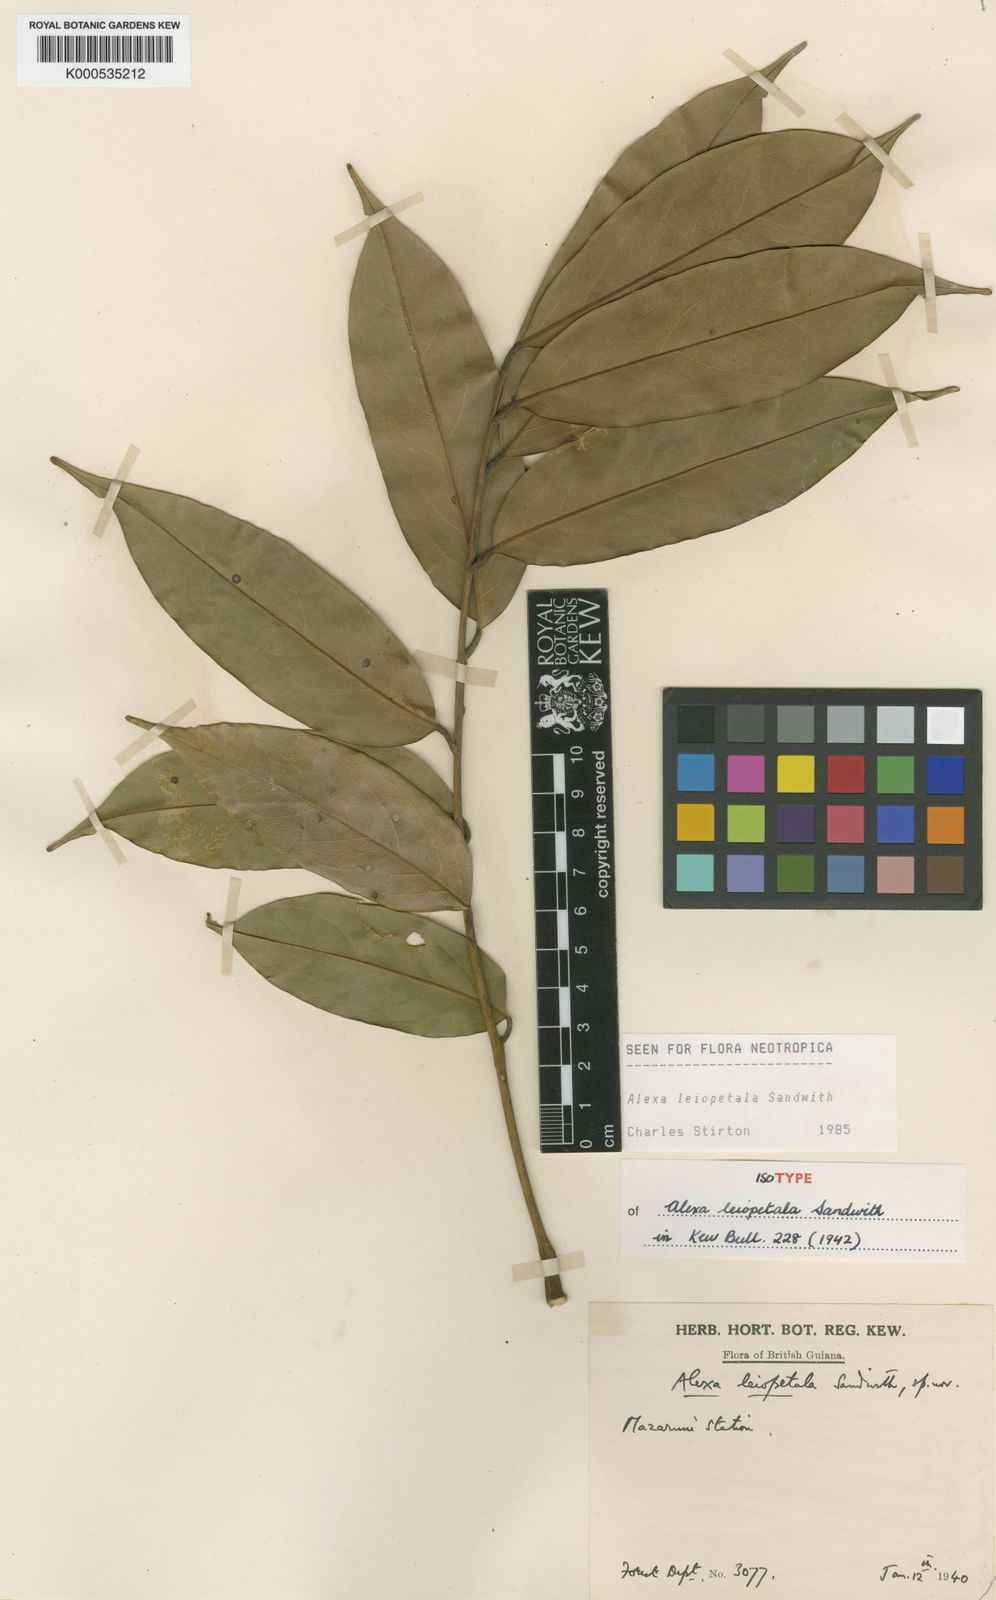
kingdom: Plantae
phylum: Tracheophyta
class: Magnoliopsida
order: Fabales
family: Fabaceae
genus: Alexa
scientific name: Alexa leiopetala
